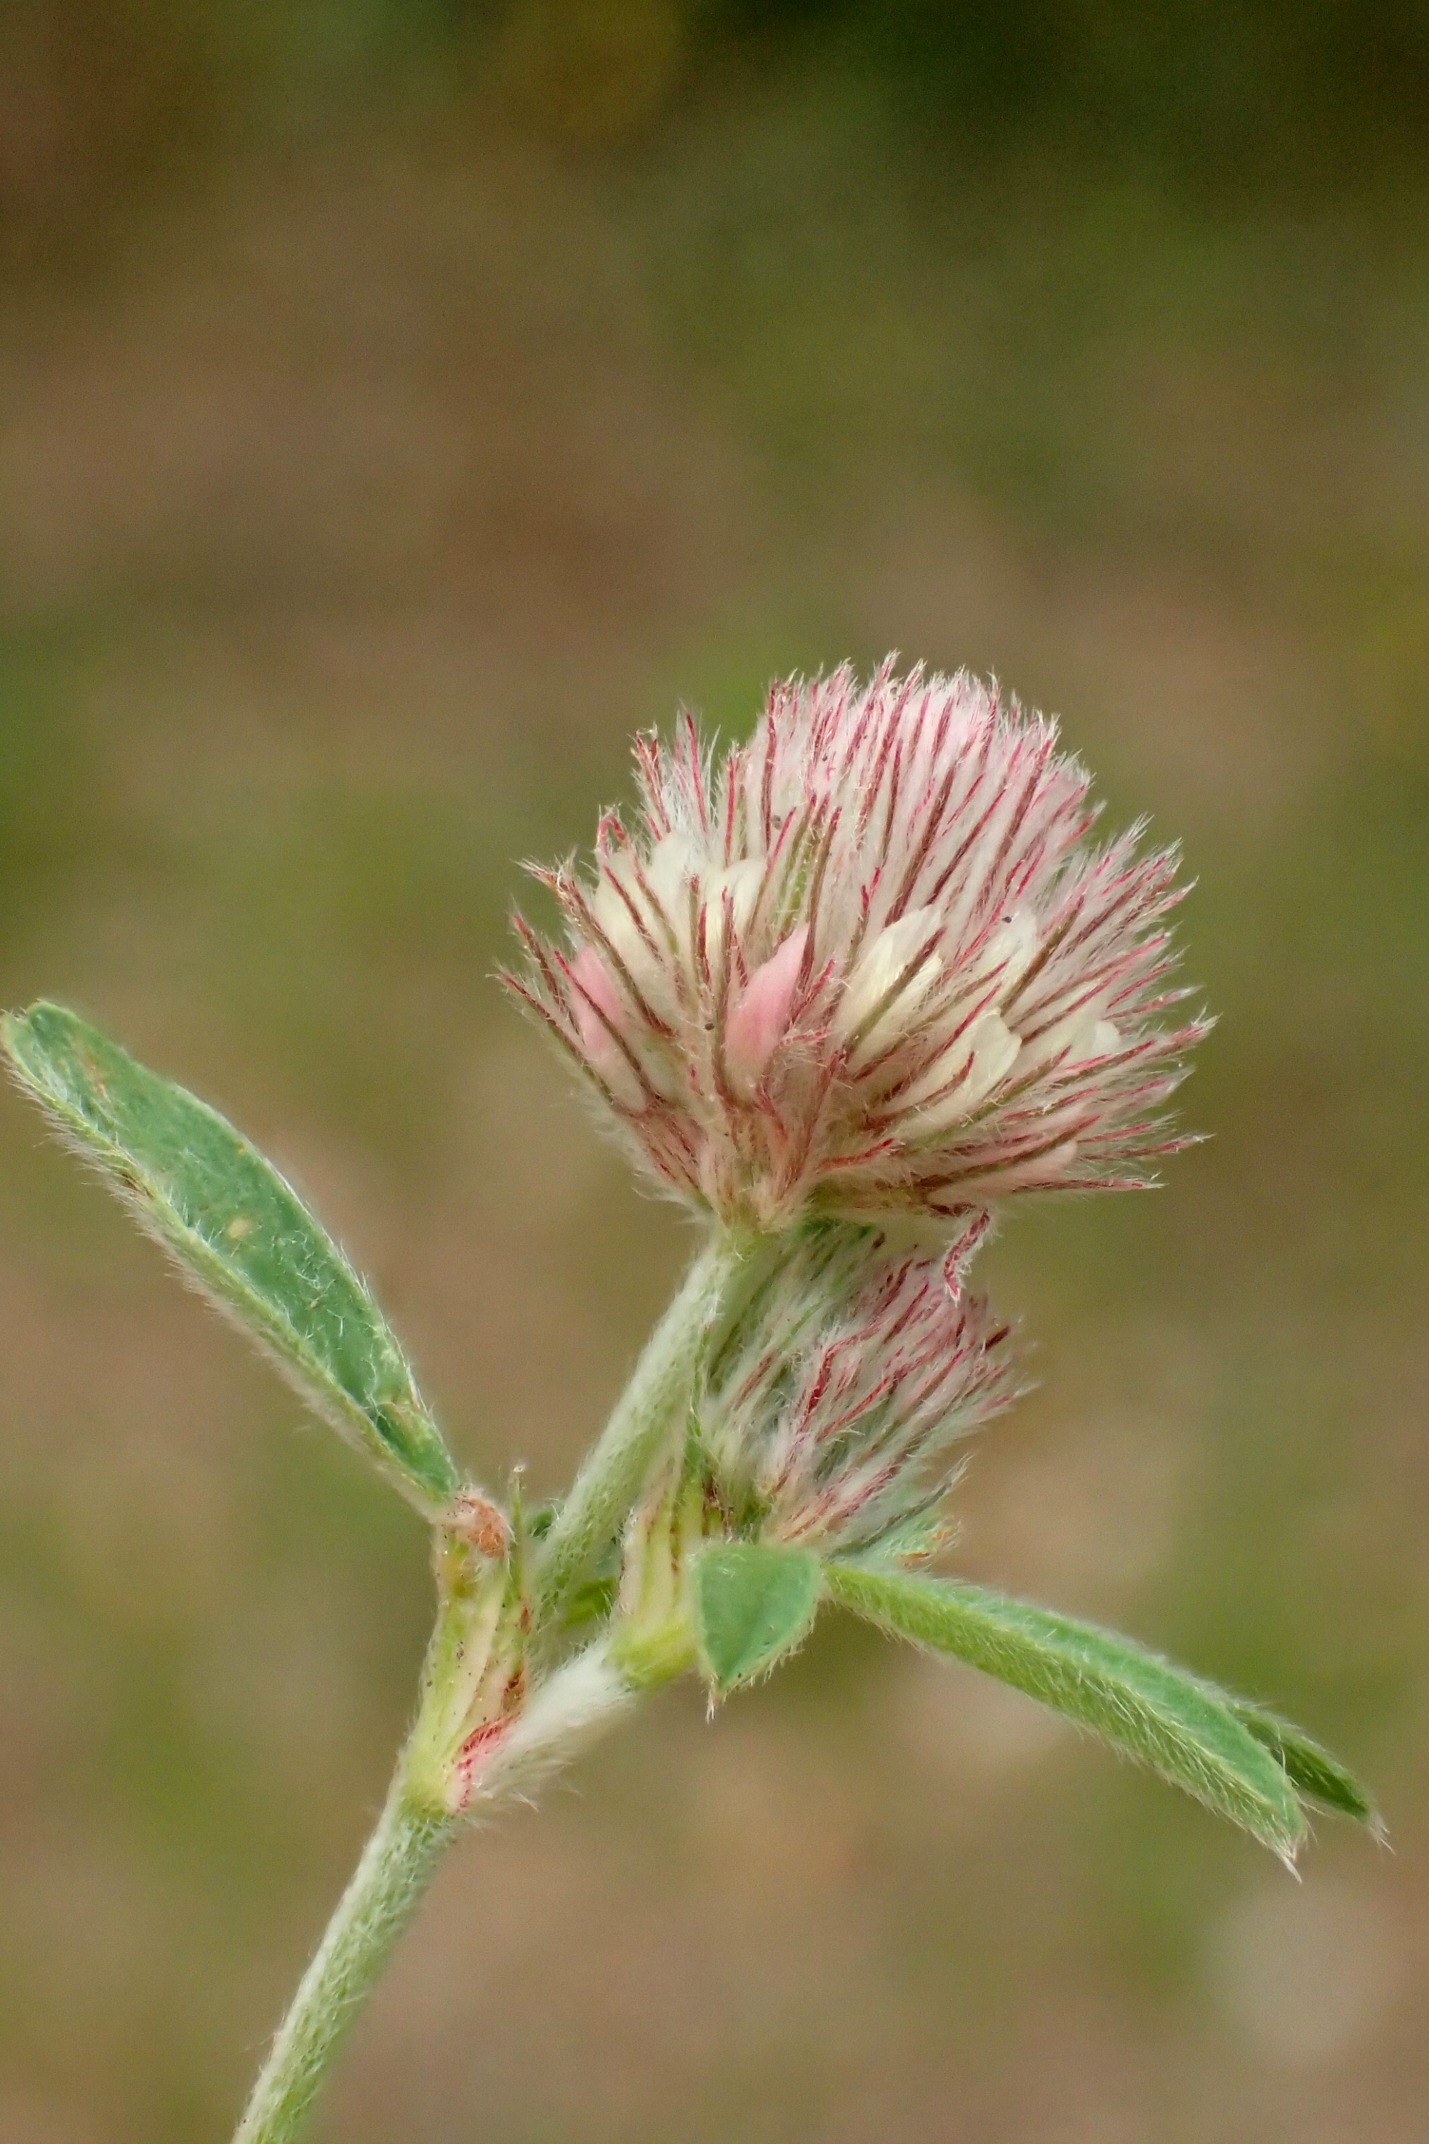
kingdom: Plantae
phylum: Tracheophyta
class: Magnoliopsida
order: Fabales
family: Fabaceae
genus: Trifolium
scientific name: Trifolium arvense
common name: Hare-kløver
